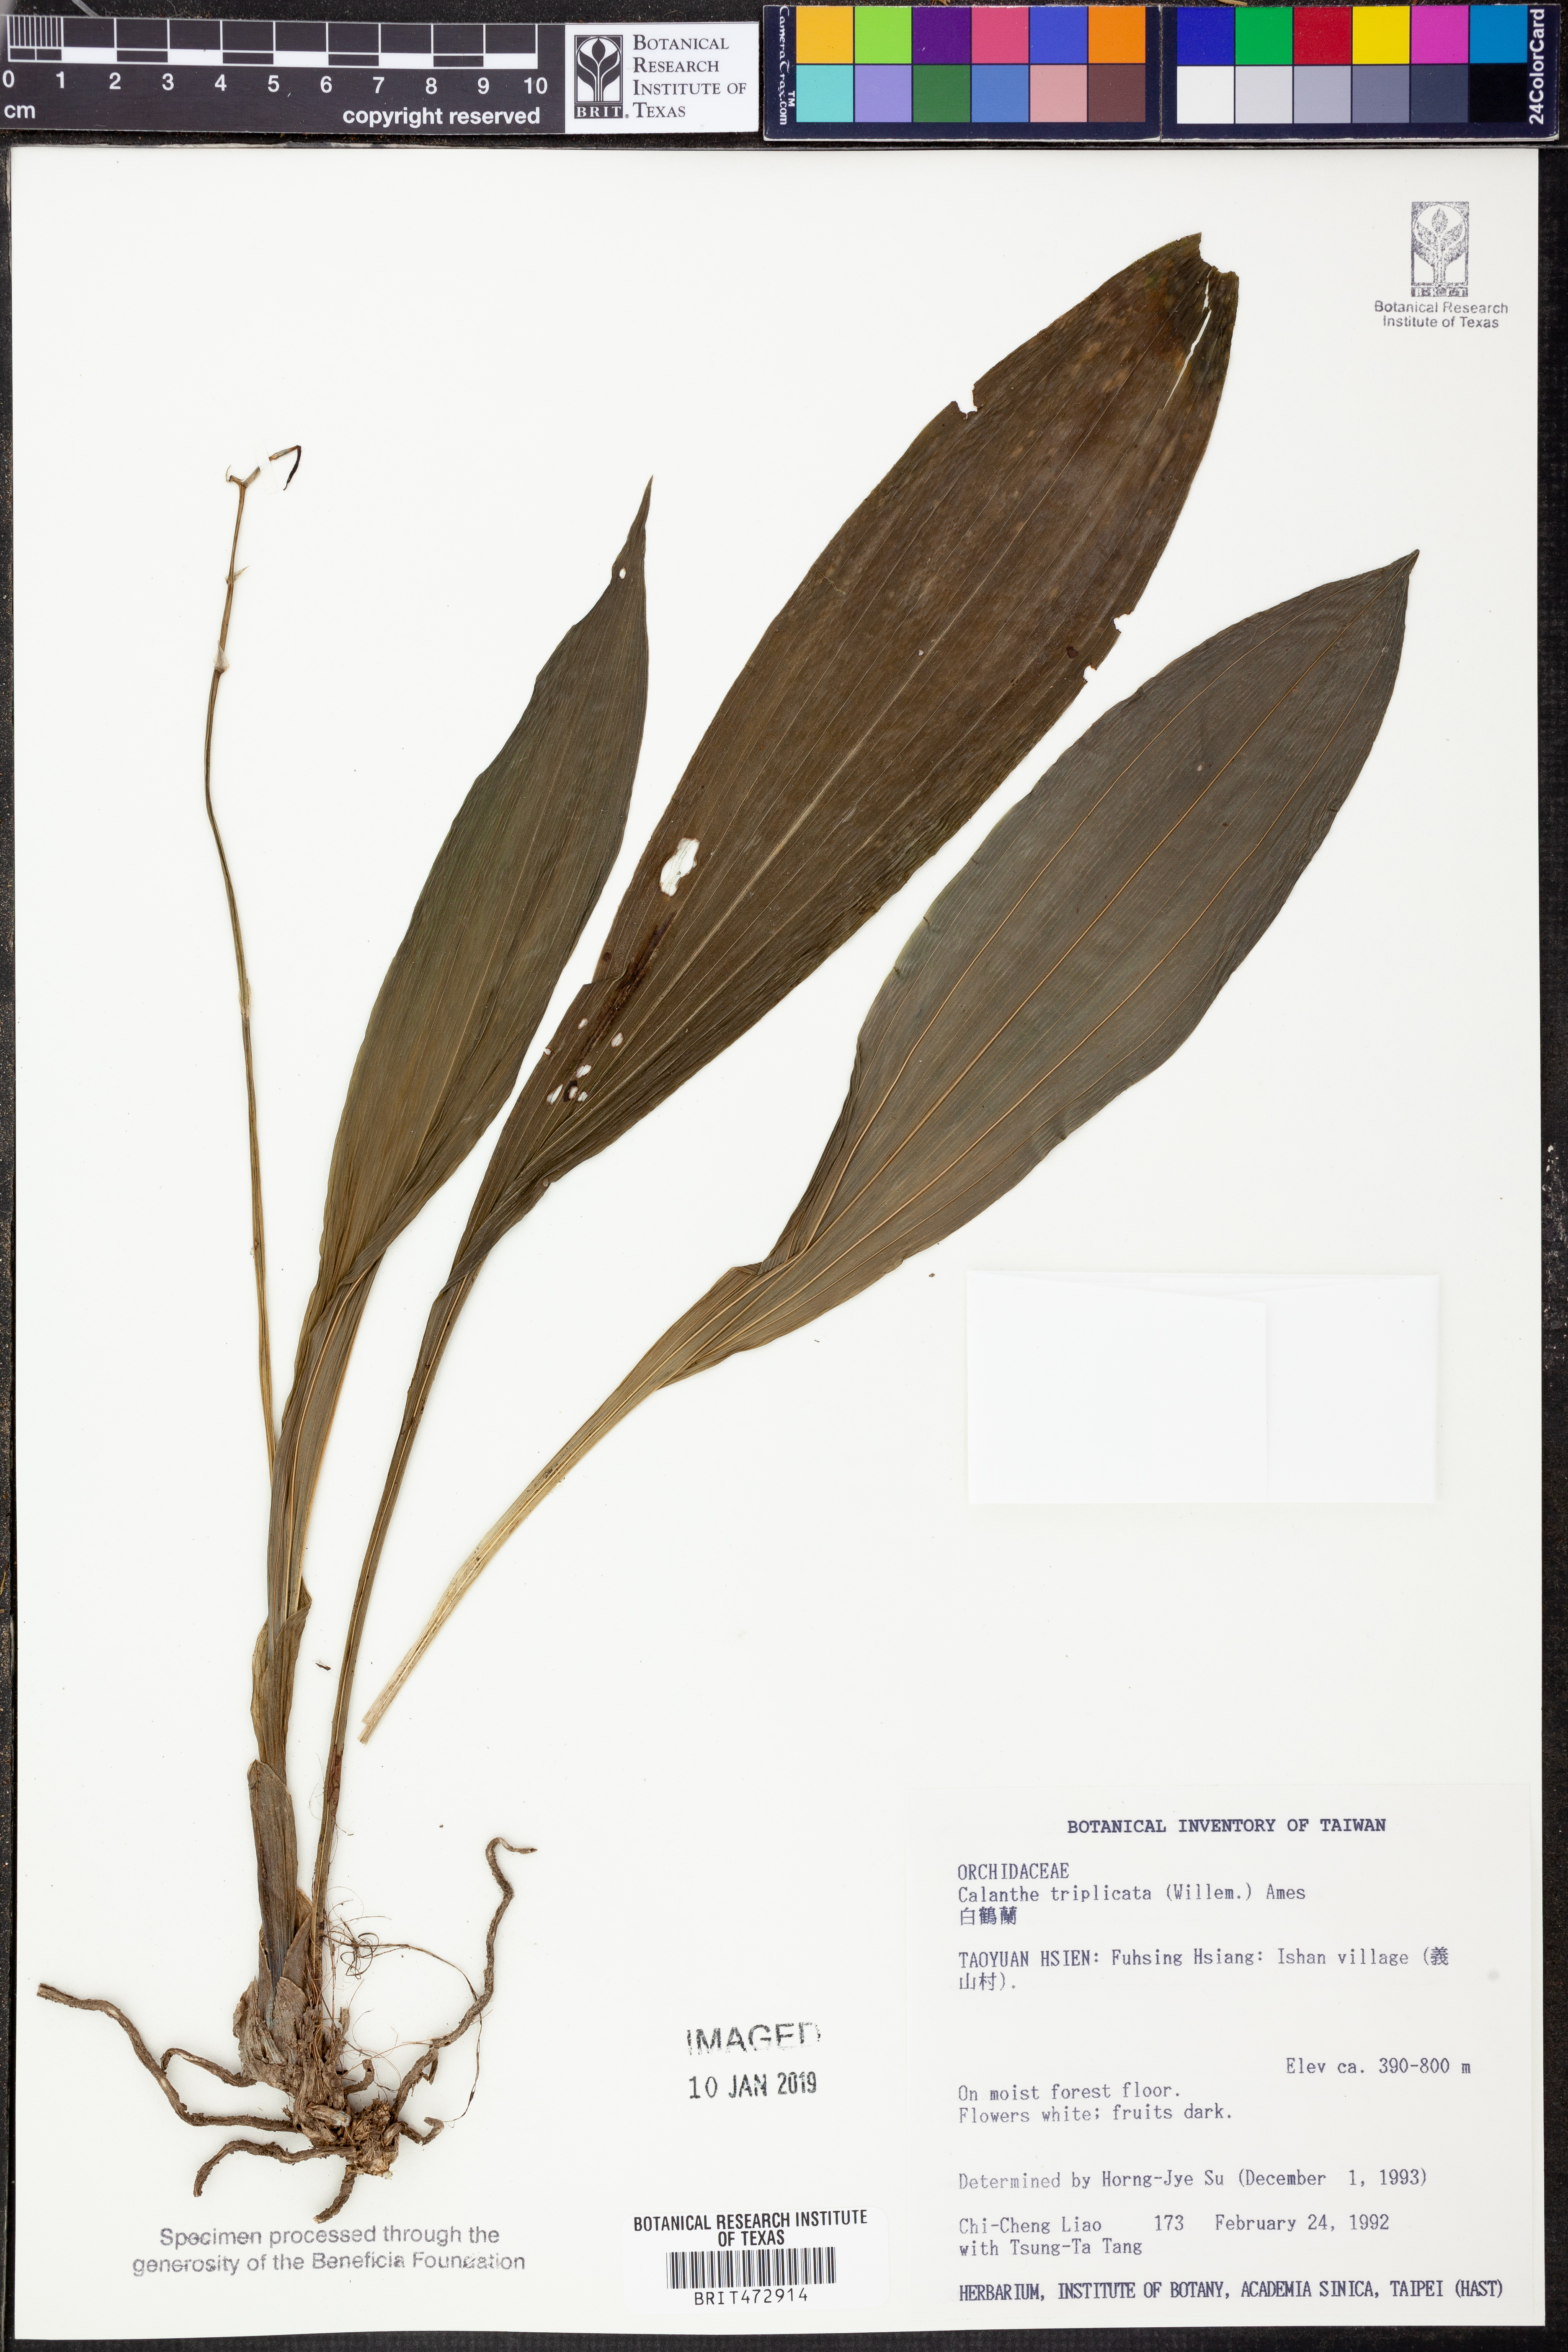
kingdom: Plantae
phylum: Tracheophyta
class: Liliopsida
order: Asparagales
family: Orchidaceae
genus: Calanthe
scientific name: Calanthe triplicata
